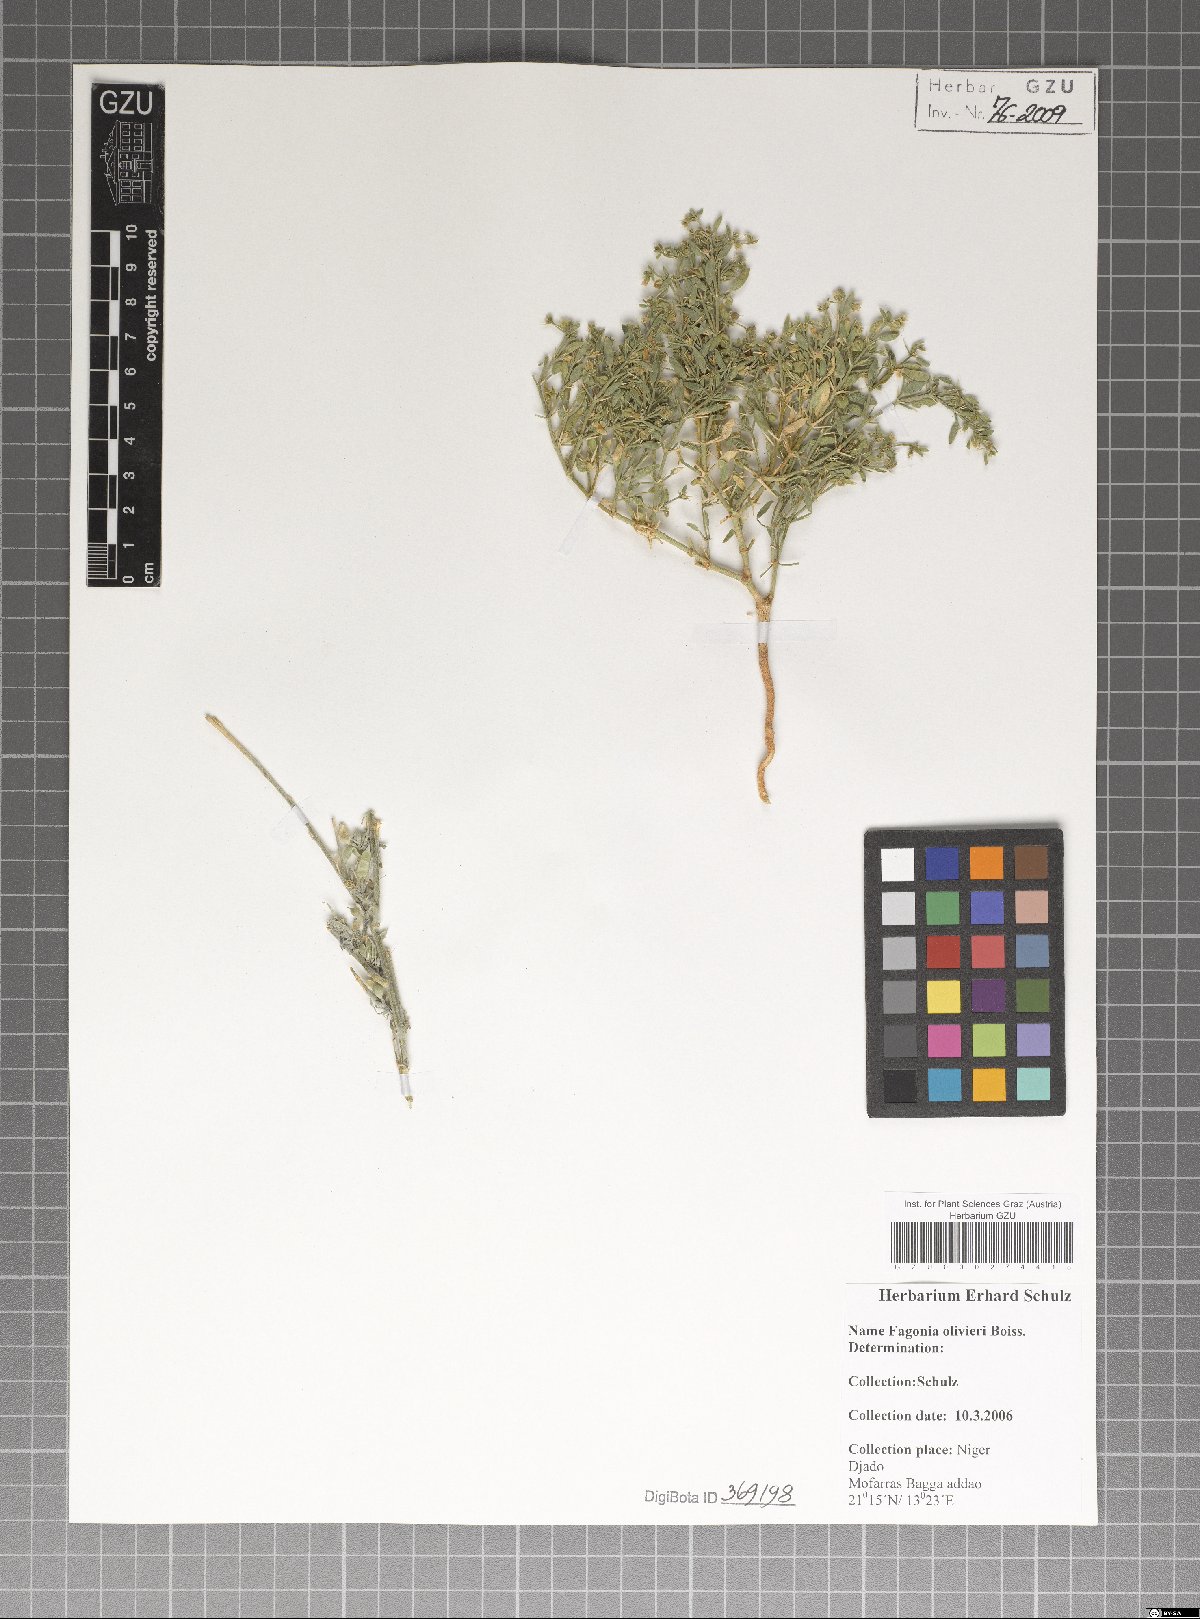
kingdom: Plantae
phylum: Tracheophyta
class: Magnoliopsida
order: Zygophyllales
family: Zygophyllaceae
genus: Fagonia
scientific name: Fagonia olivieri
